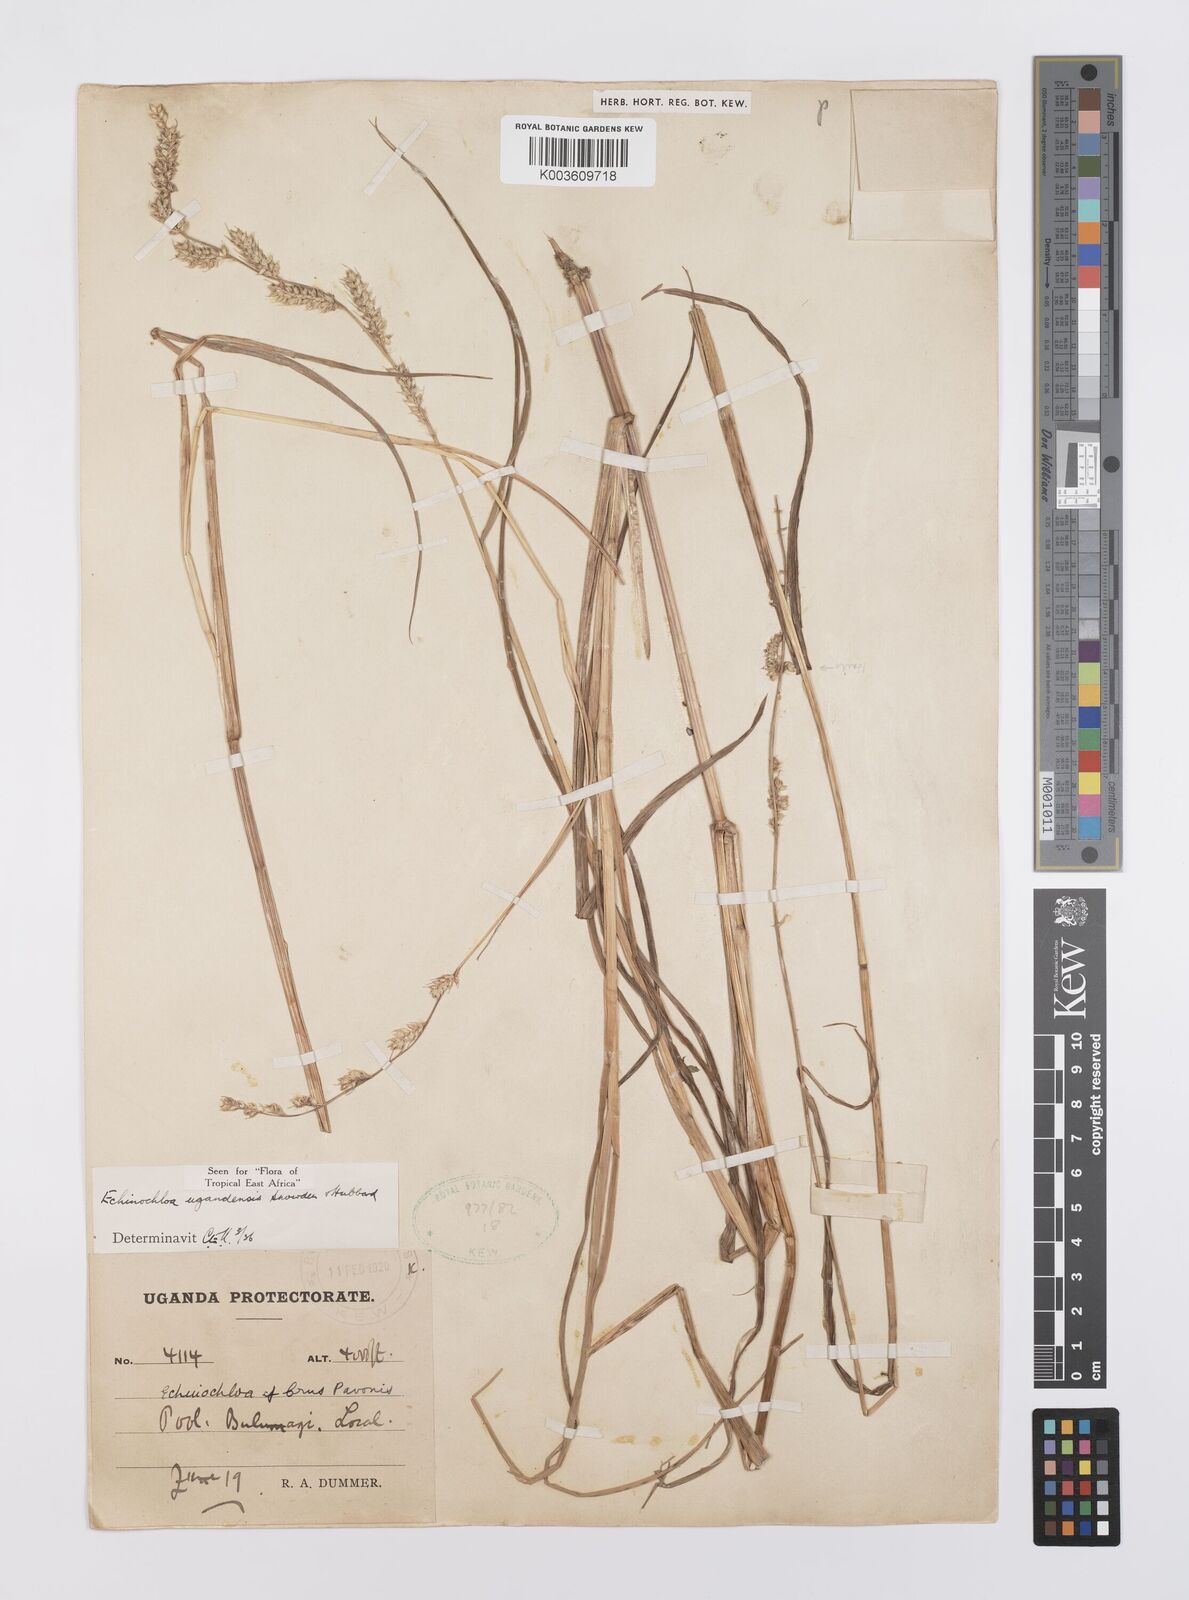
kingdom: Plantae
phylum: Tracheophyta
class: Liliopsida
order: Poales
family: Poaceae
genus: Echinochloa
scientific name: Echinochloa ugandensis
